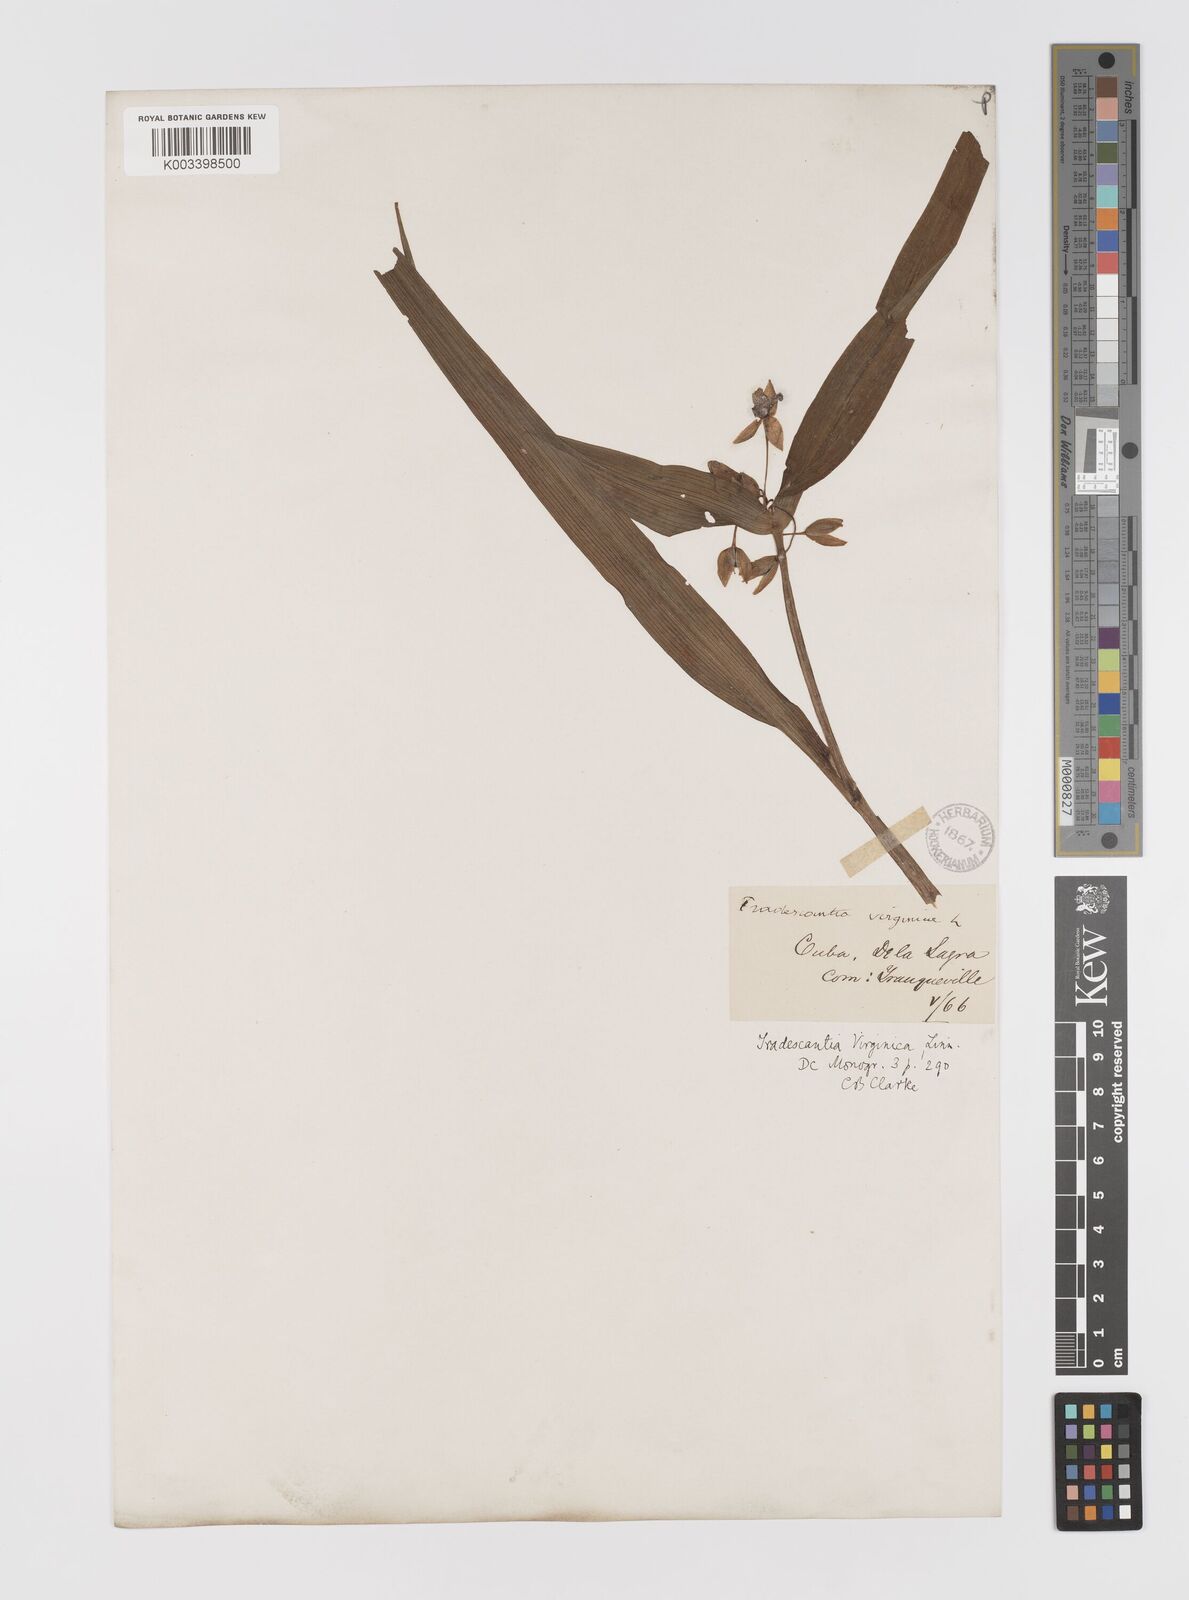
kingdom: Plantae
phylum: Tracheophyta
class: Liliopsida
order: Commelinales
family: Commelinaceae
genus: Tradescantia
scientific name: Tradescantia virginiana
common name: Spiderwort
